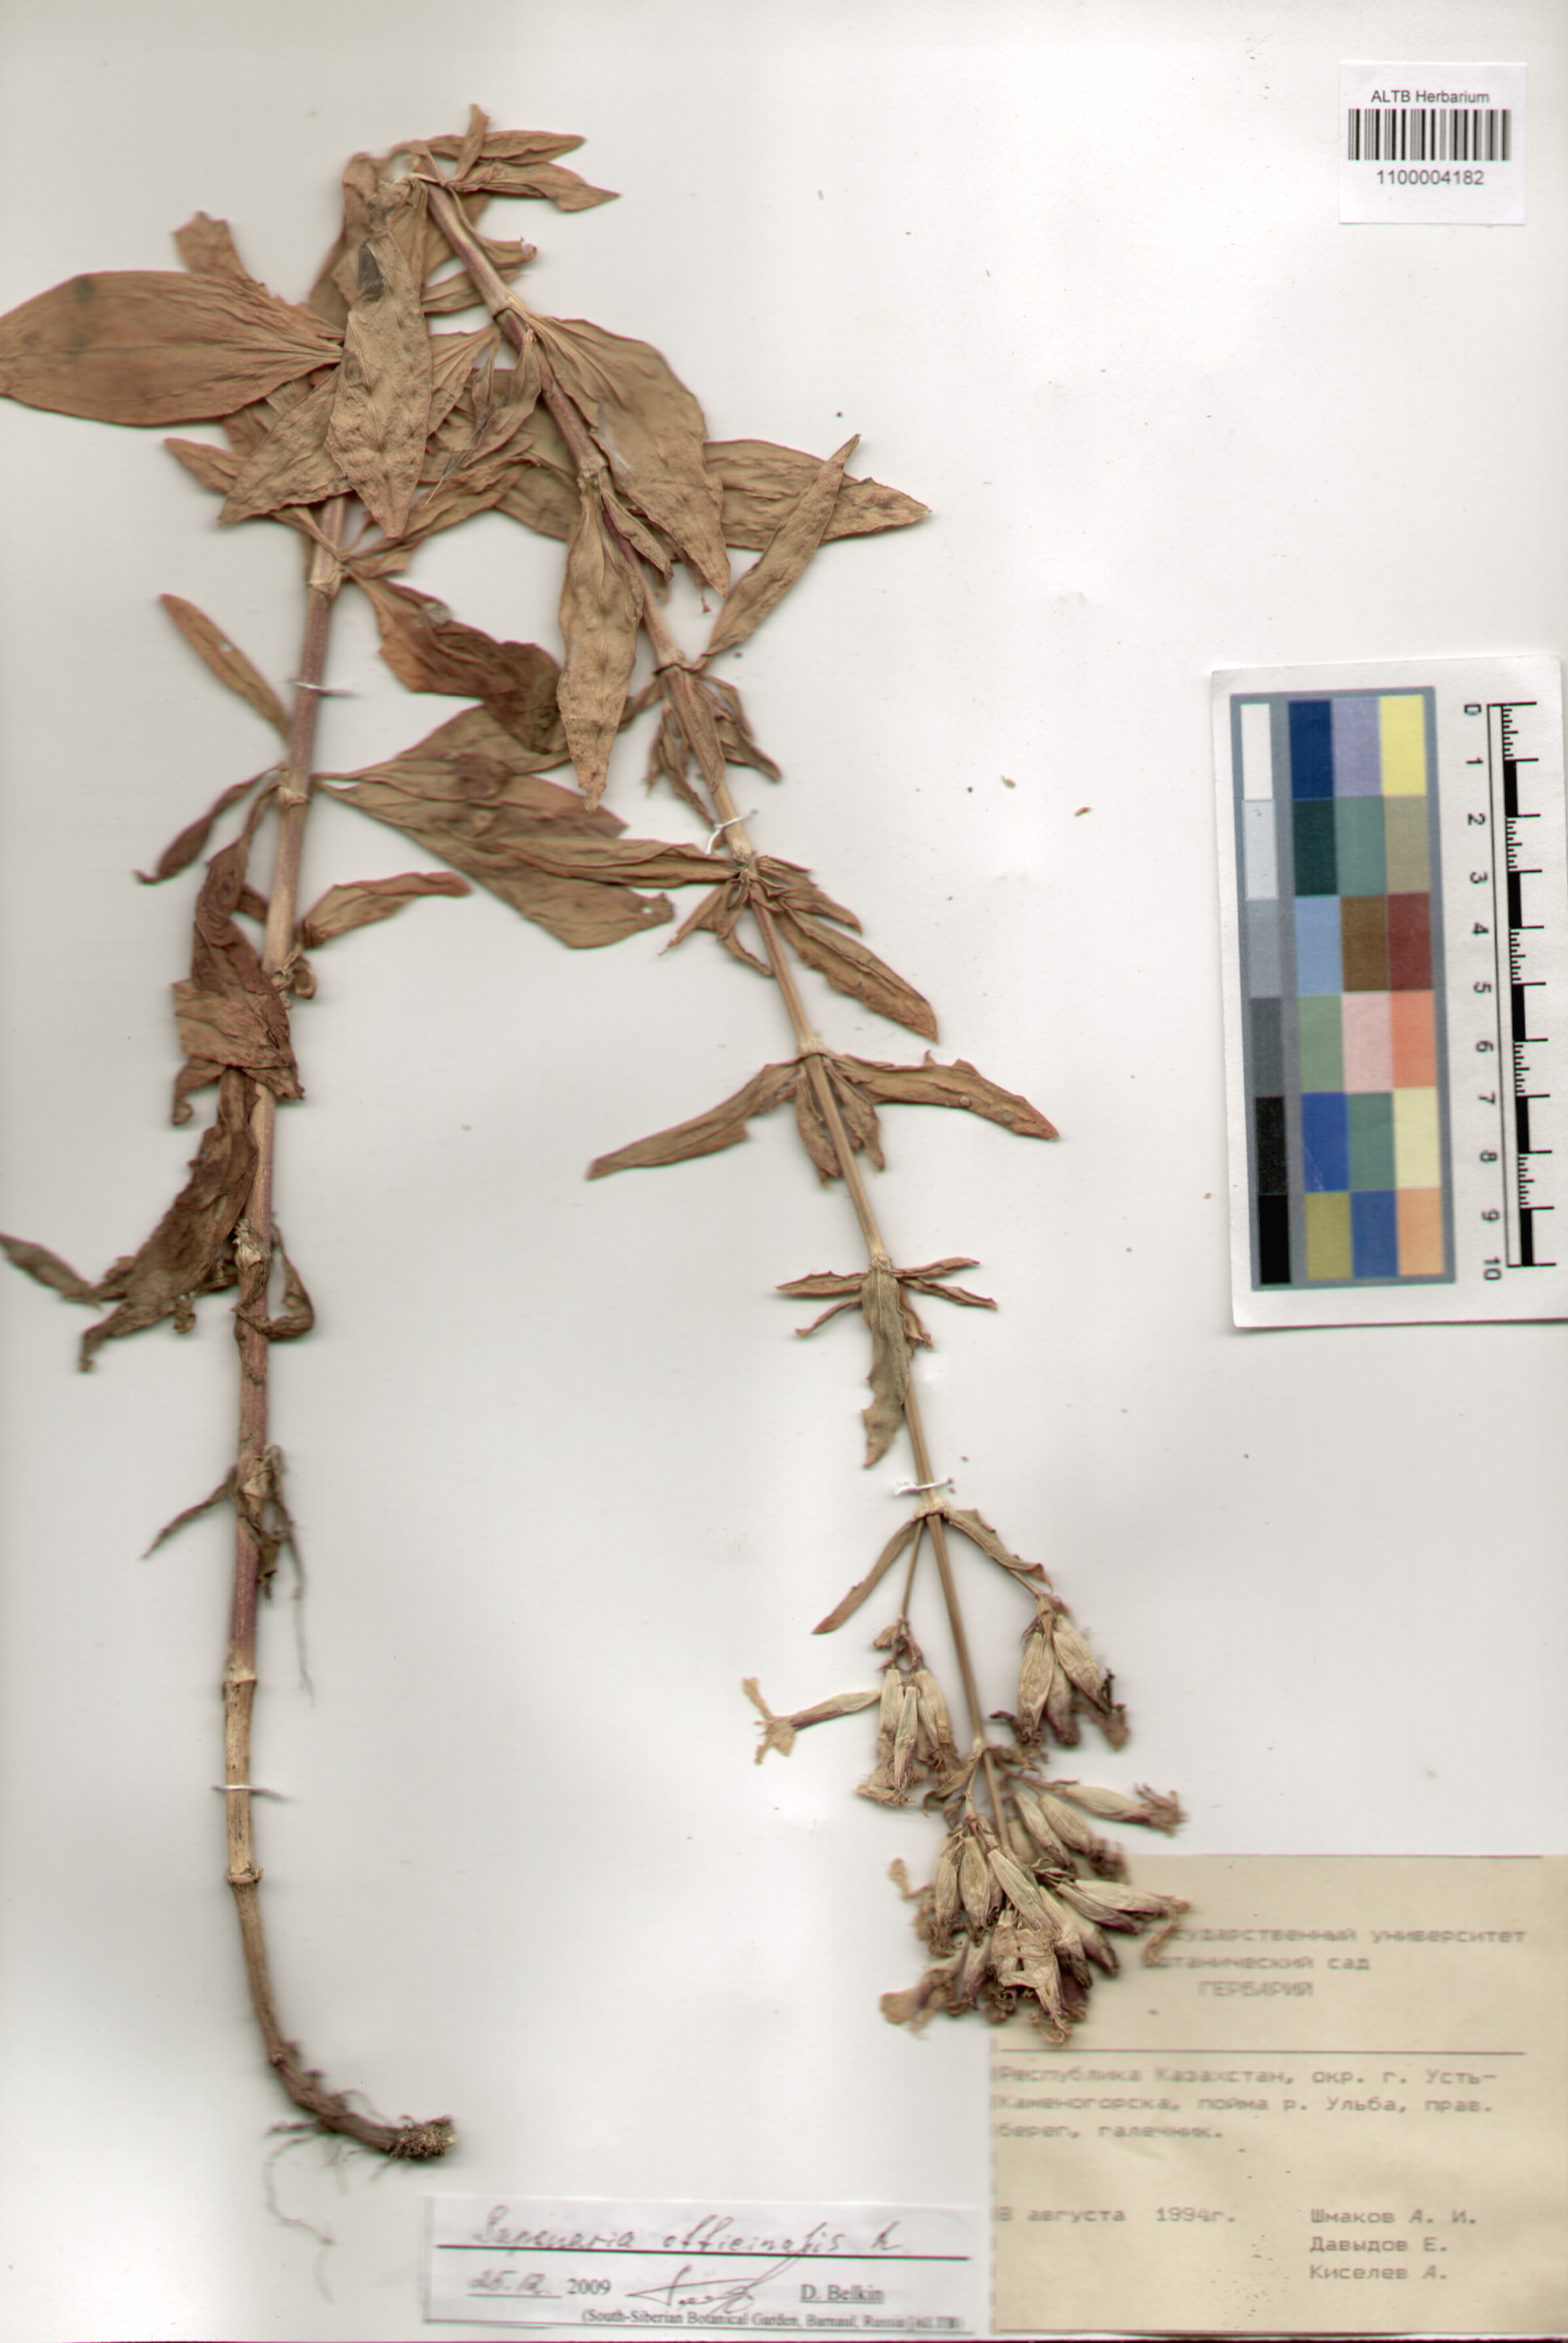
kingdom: Plantae
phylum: Tracheophyta
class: Magnoliopsida
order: Caryophyllales
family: Caryophyllaceae
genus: Saponaria
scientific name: Saponaria officinalis
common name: Soapwort
